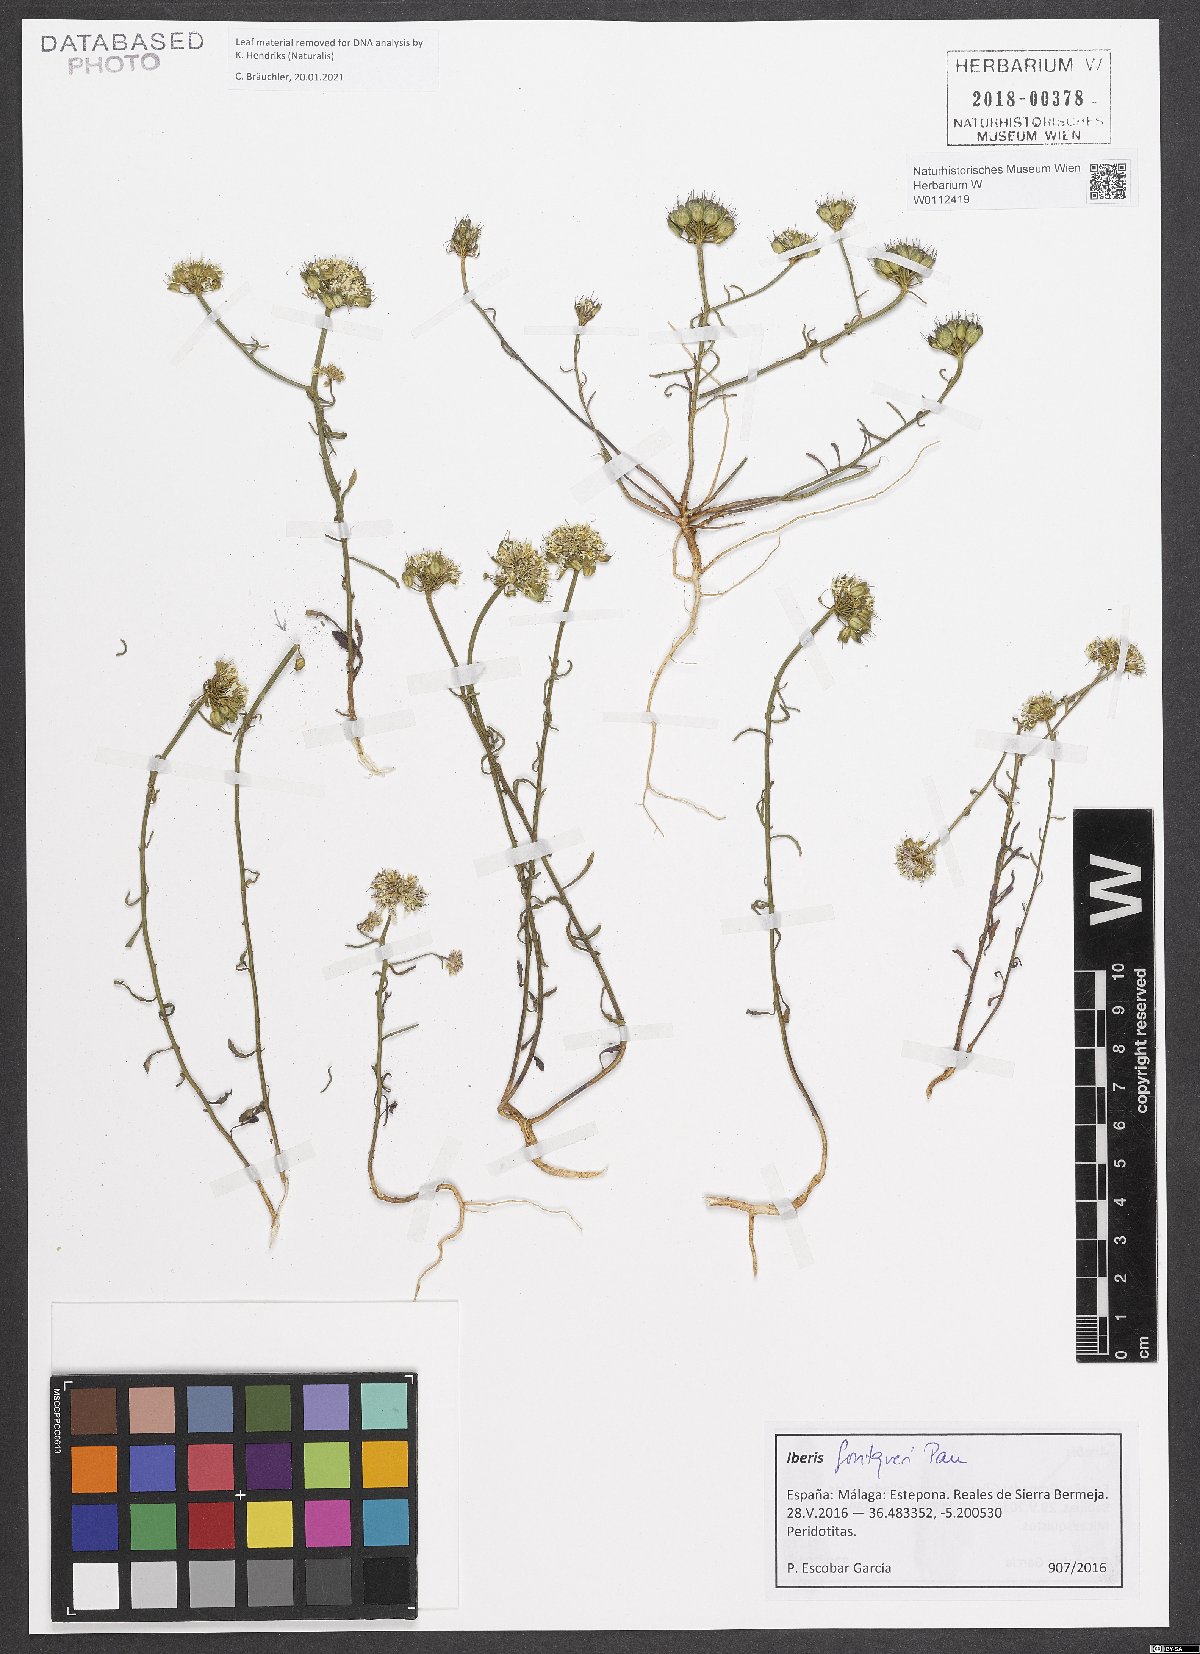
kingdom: Plantae
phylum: Tracheophyta
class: Magnoliopsida
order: Brassicales
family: Brassicaceae
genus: Iberis
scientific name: Iberis fontqueri
